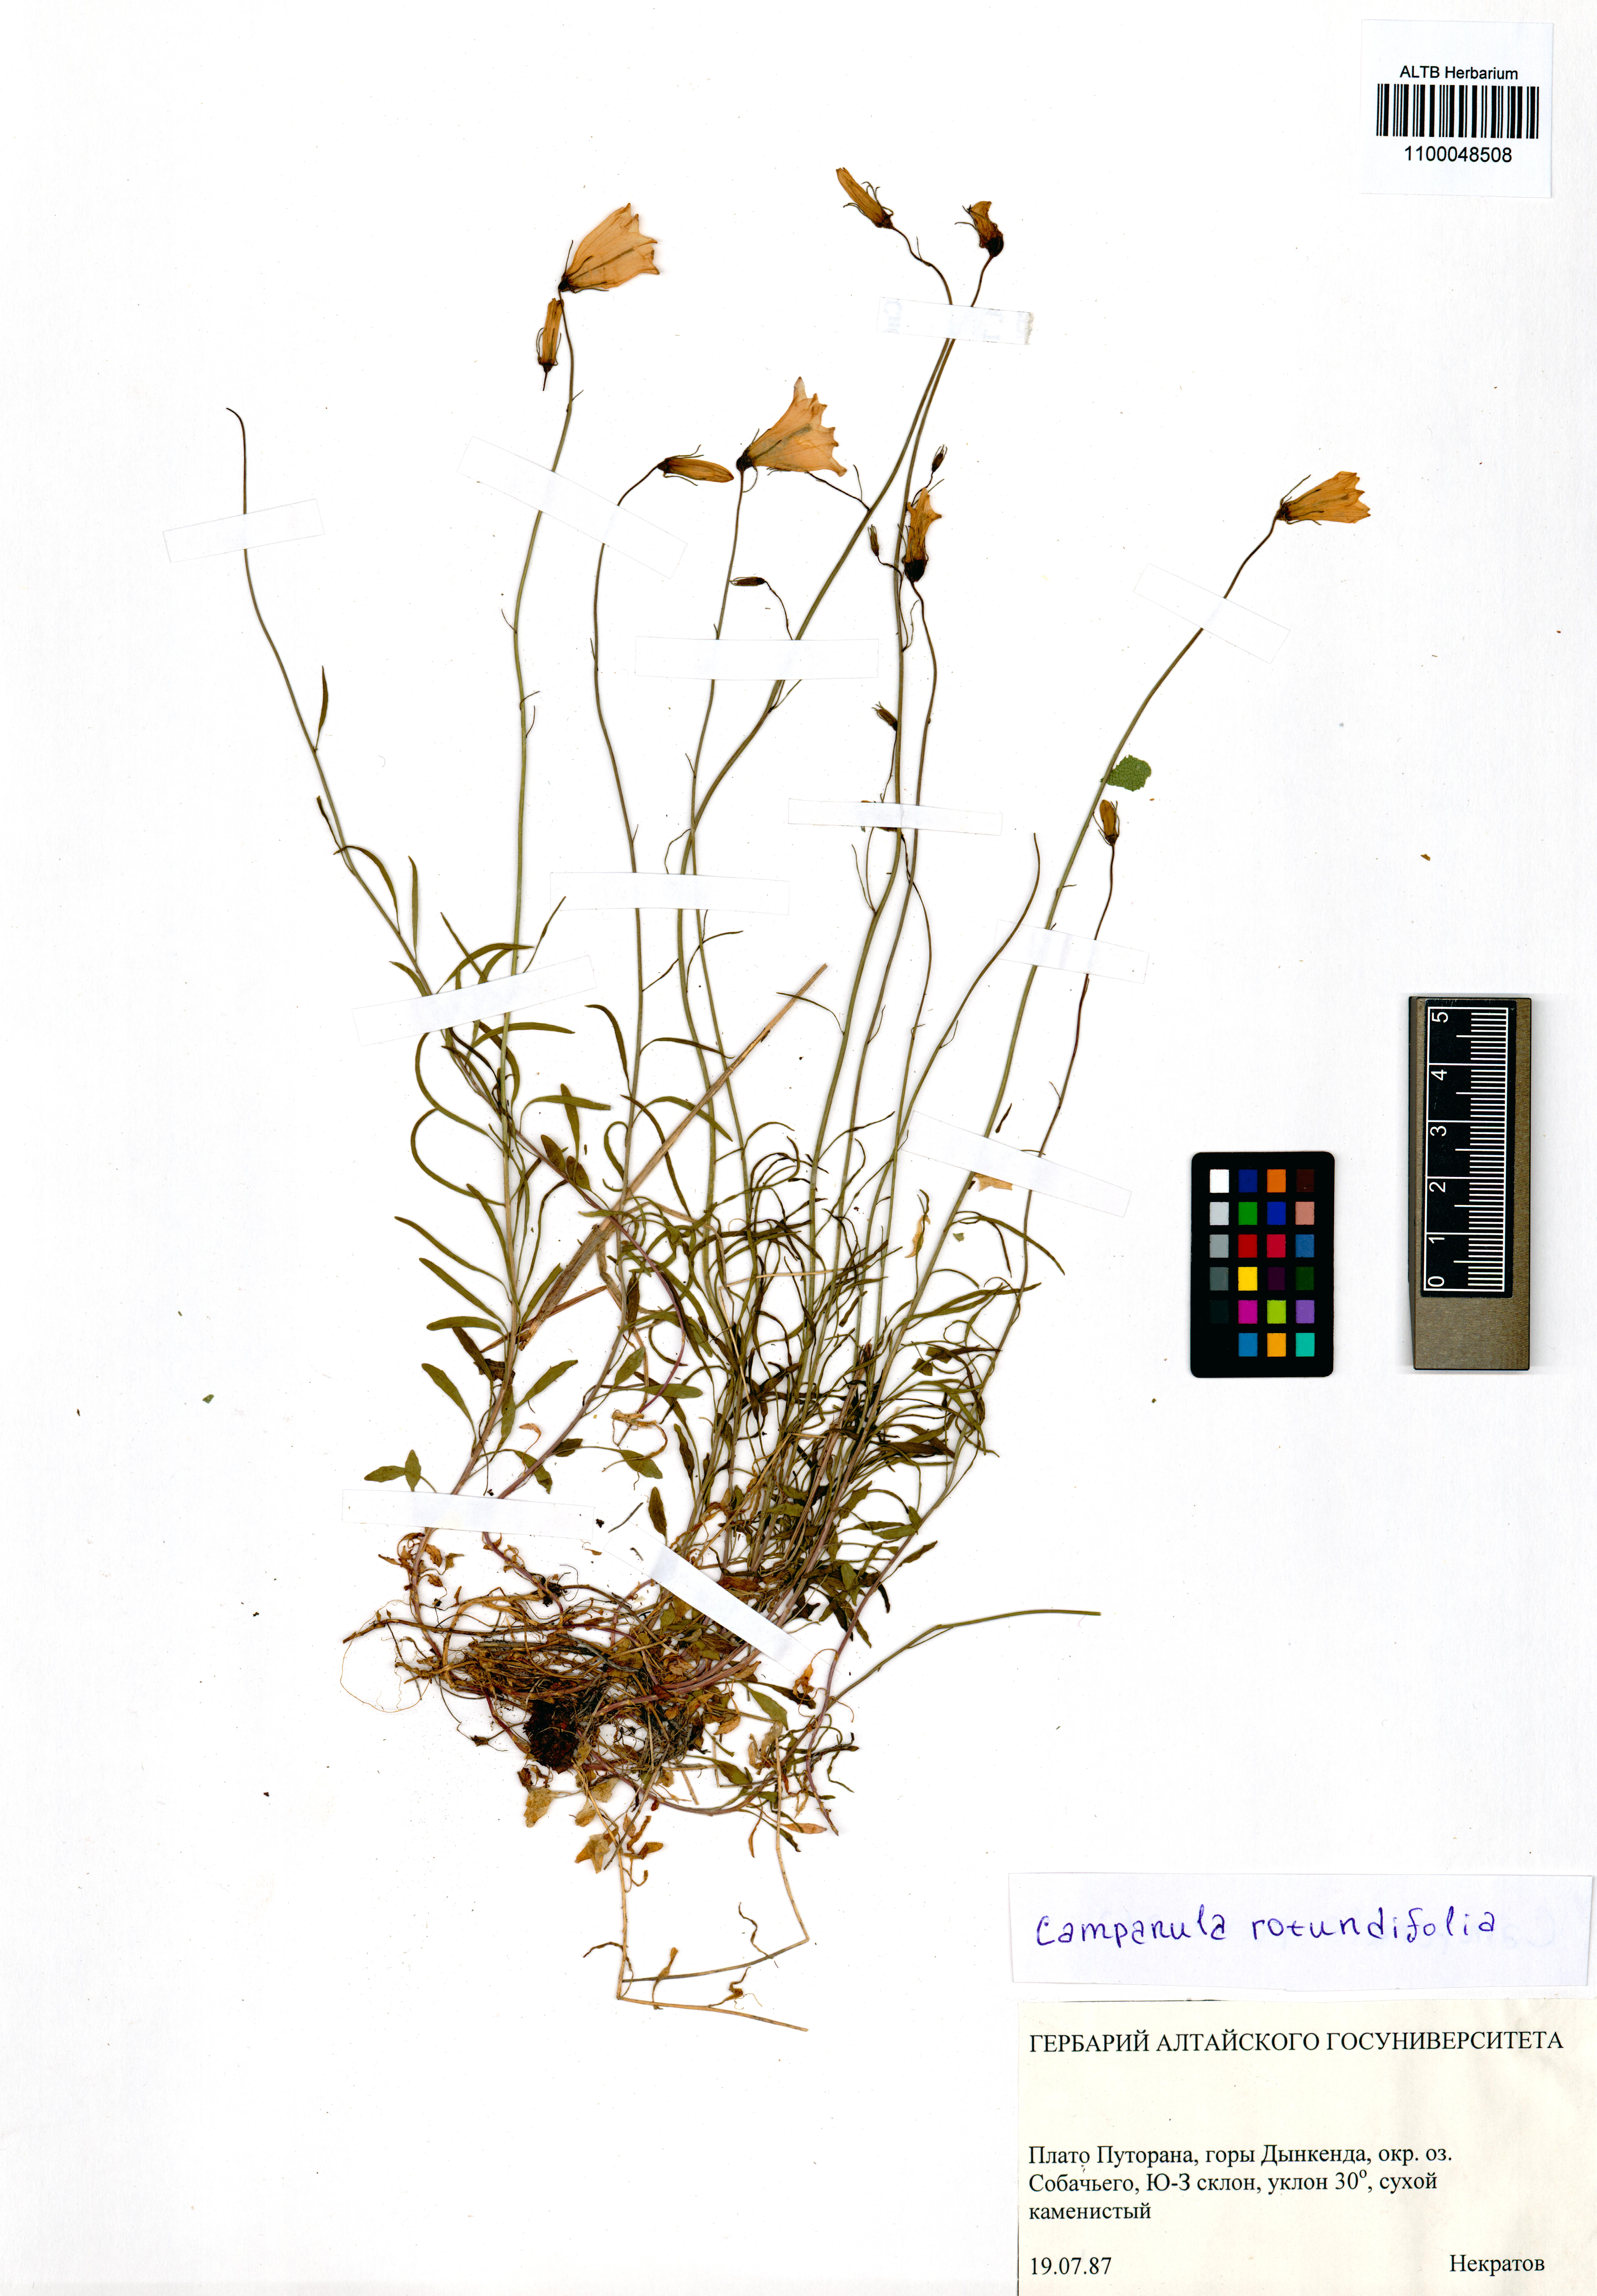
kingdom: Plantae
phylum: Tracheophyta
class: Magnoliopsida
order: Asterales
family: Campanulaceae
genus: Campanula
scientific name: Campanula rotundifolia
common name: Harebell
